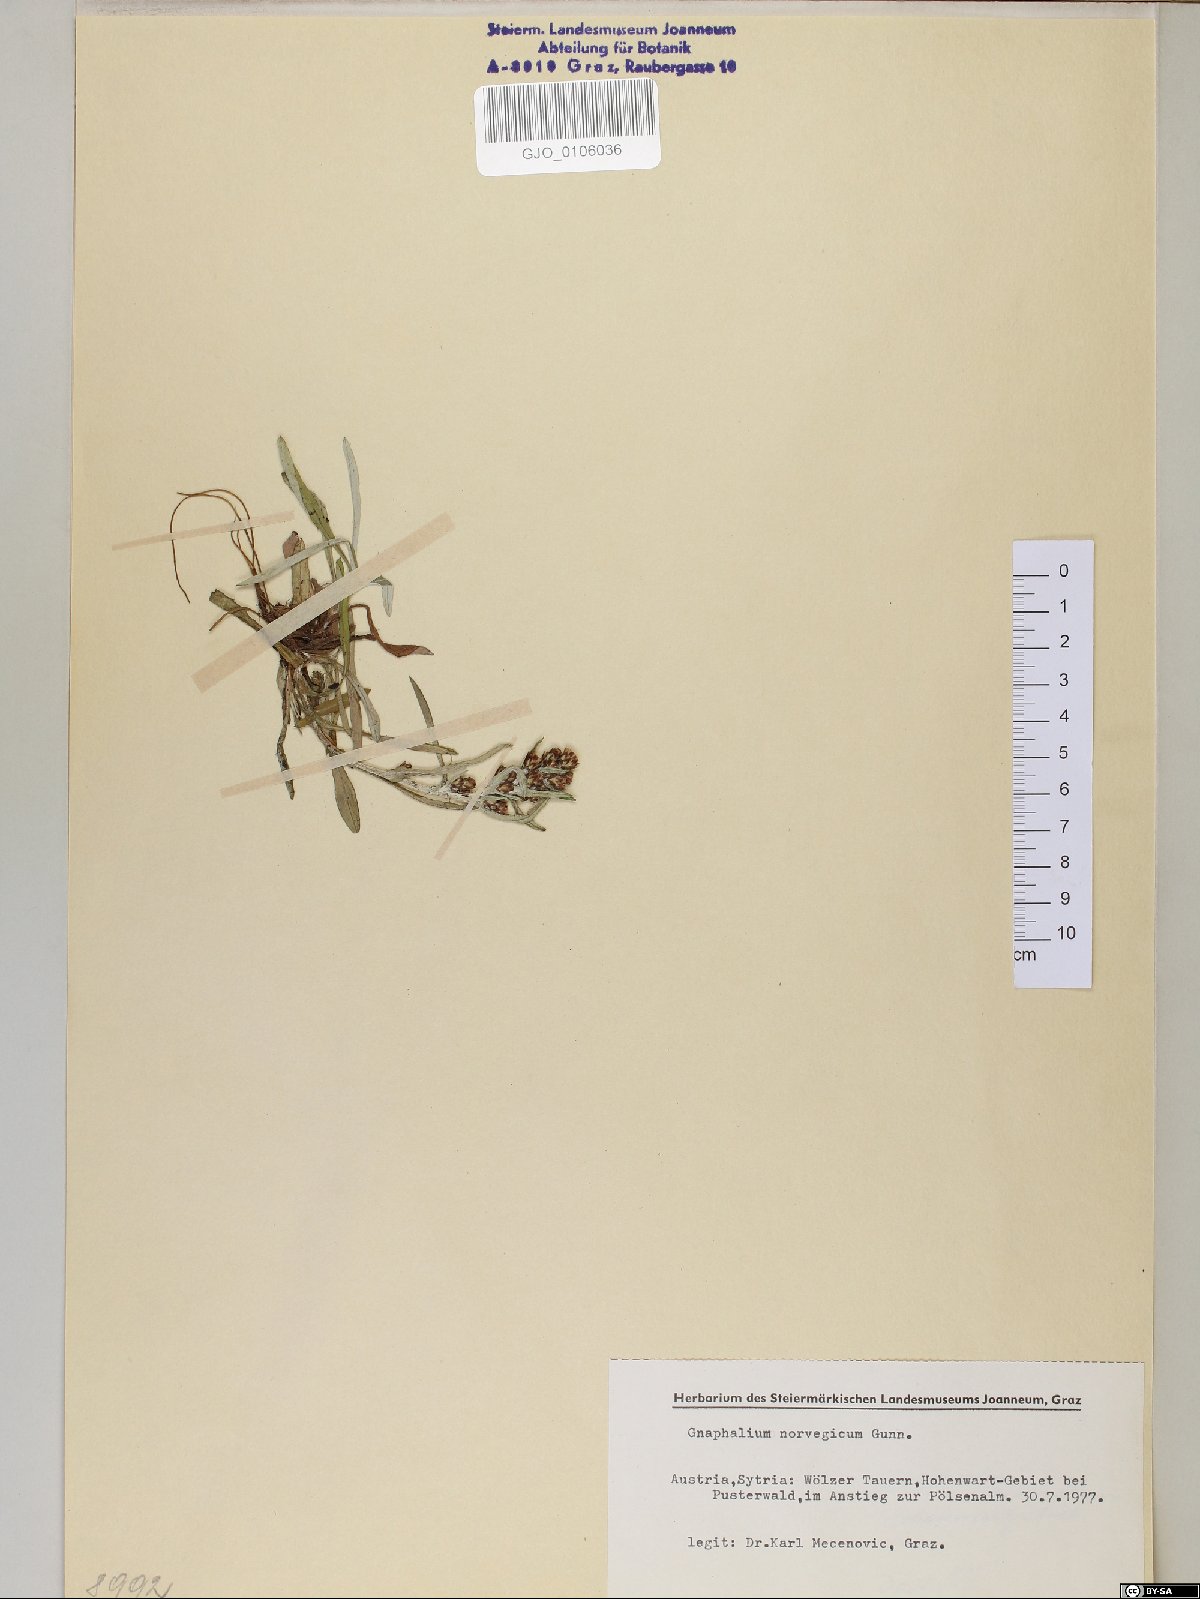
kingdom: Plantae
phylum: Tracheophyta
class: Magnoliopsida
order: Asterales
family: Asteraceae
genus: Omalotheca
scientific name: Omalotheca norvegica
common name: Norwegian arctic-cudweed
